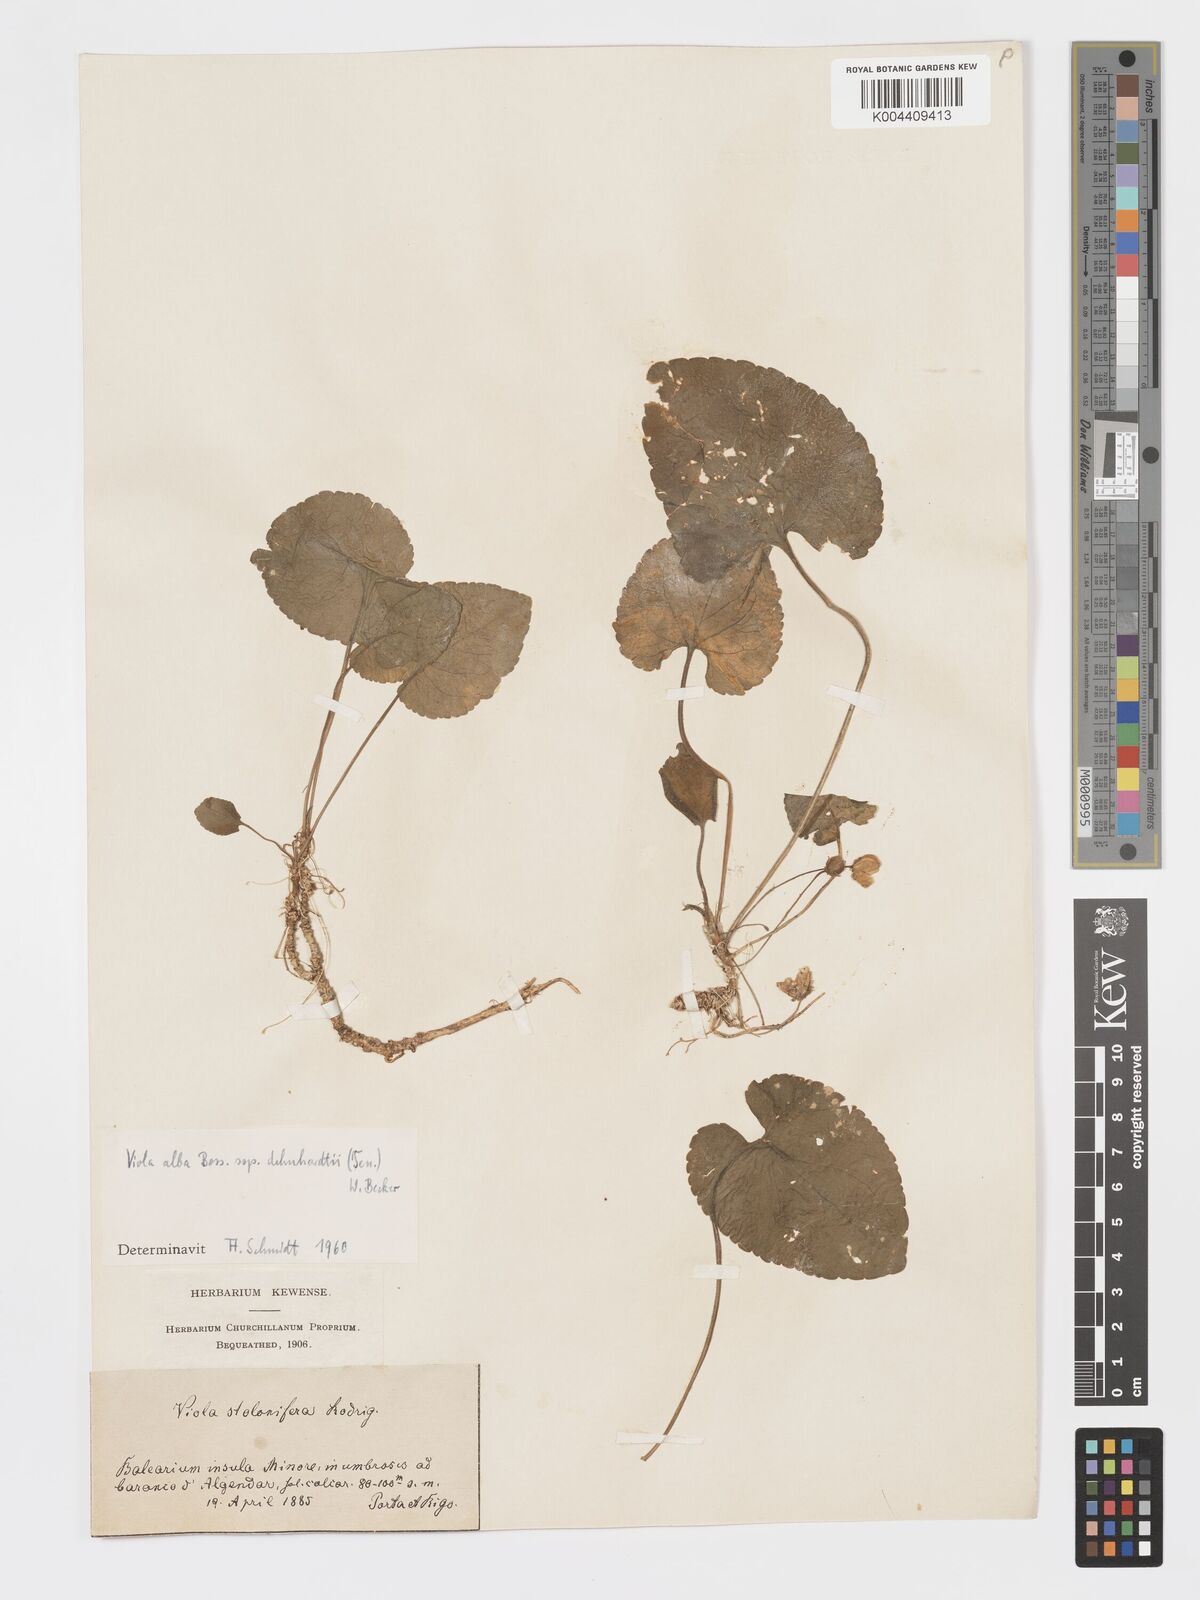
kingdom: Plantae
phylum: Tracheophyta
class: Magnoliopsida
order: Malpighiales
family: Violaceae
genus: Viola
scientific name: Viola alba
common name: White violet
